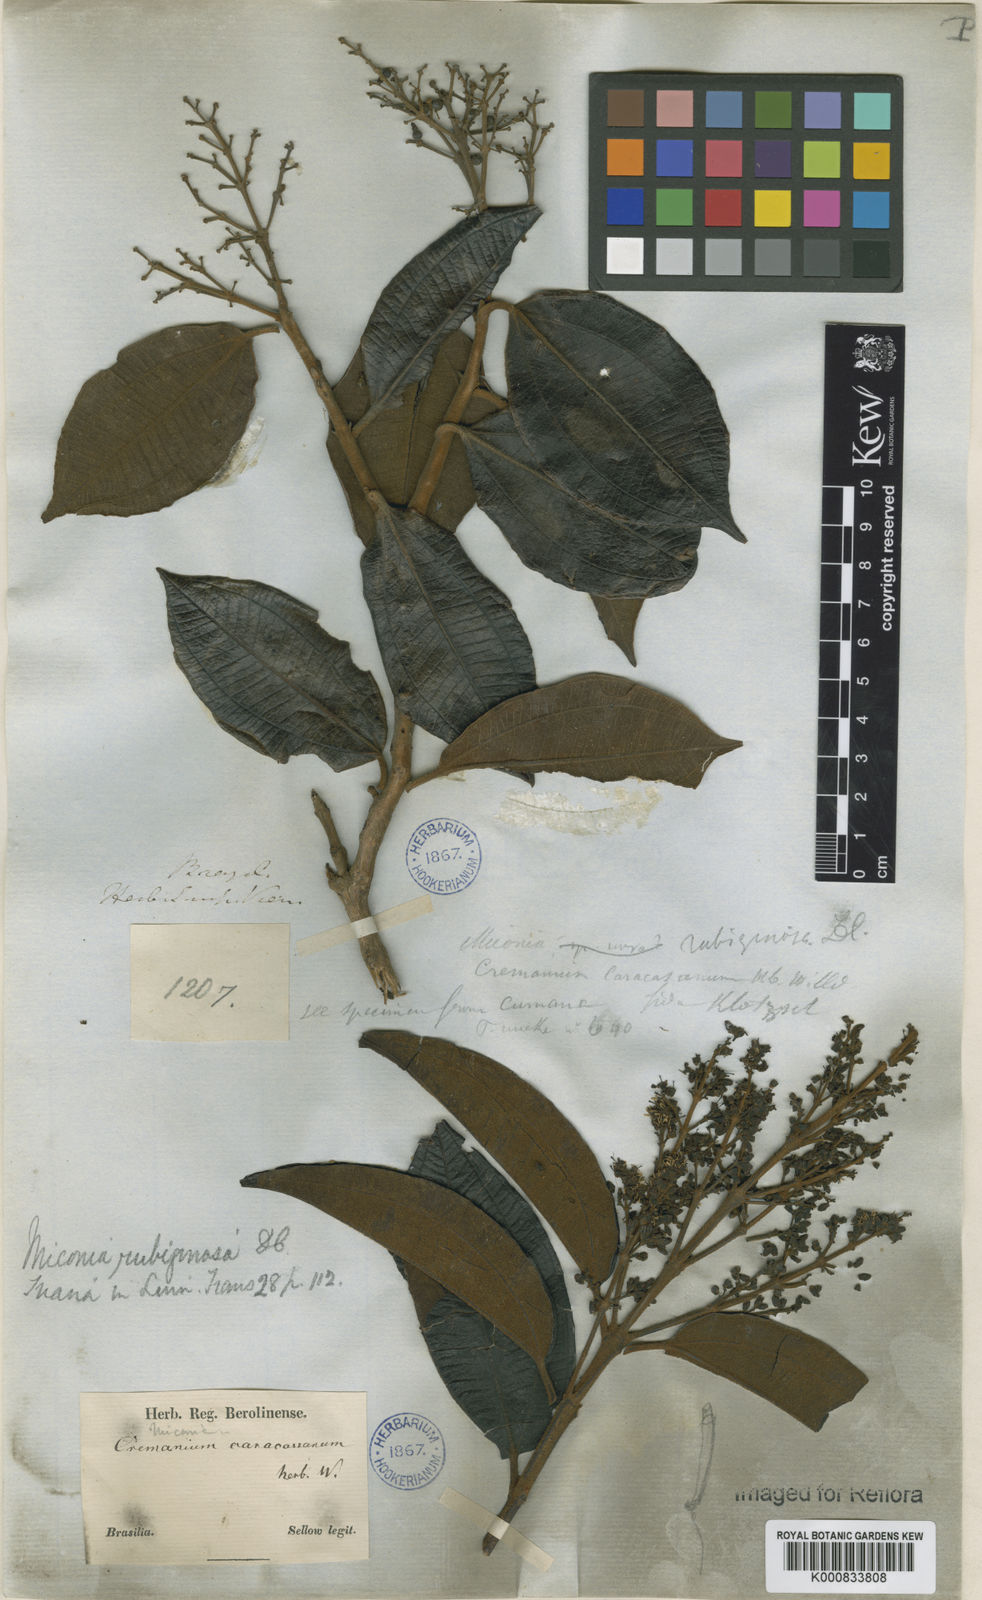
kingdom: Plantae
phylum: Tracheophyta
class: Magnoliopsida
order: Myrtales
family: Melastomataceae
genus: Miconia
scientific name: Miconia rubiginosa
